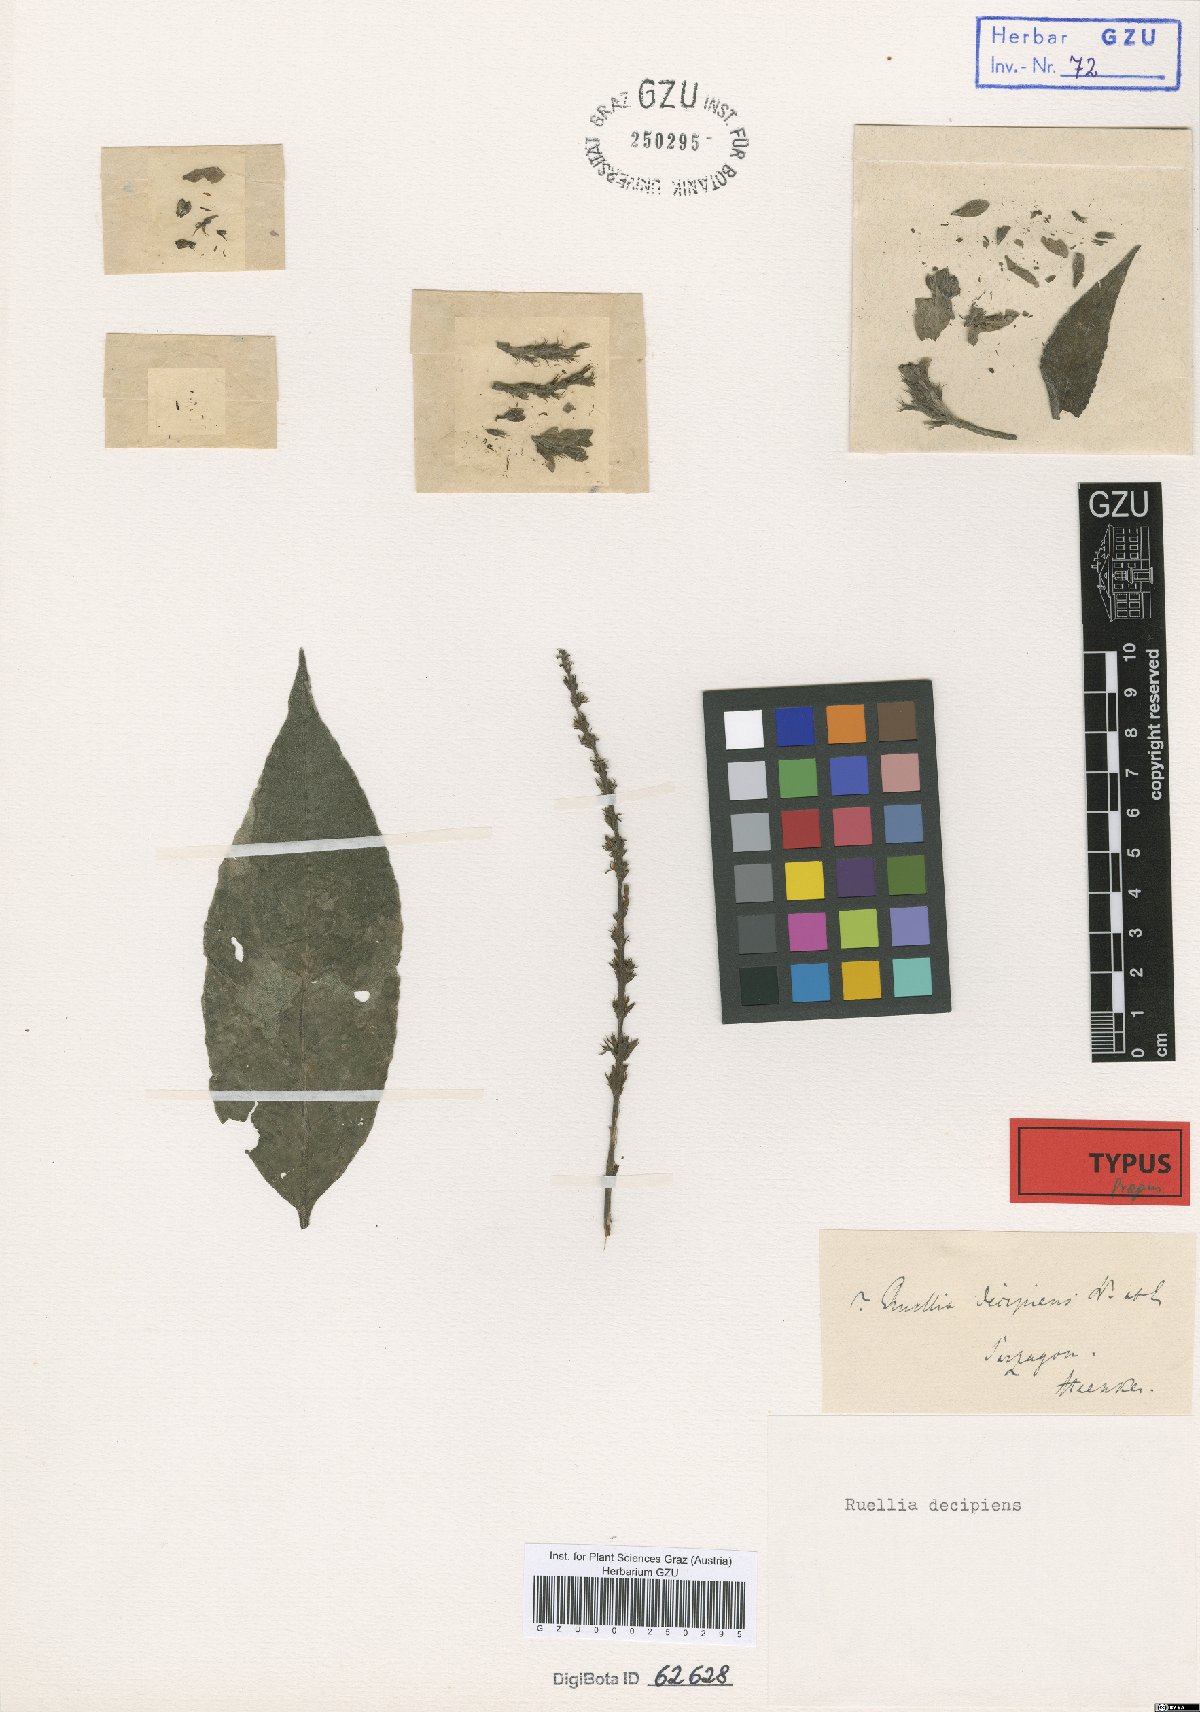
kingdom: Plantae
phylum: Tracheophyta
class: Magnoliopsida
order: Lamiales
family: Acanthaceae
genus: Ruellia
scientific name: Ruellia decipiens
